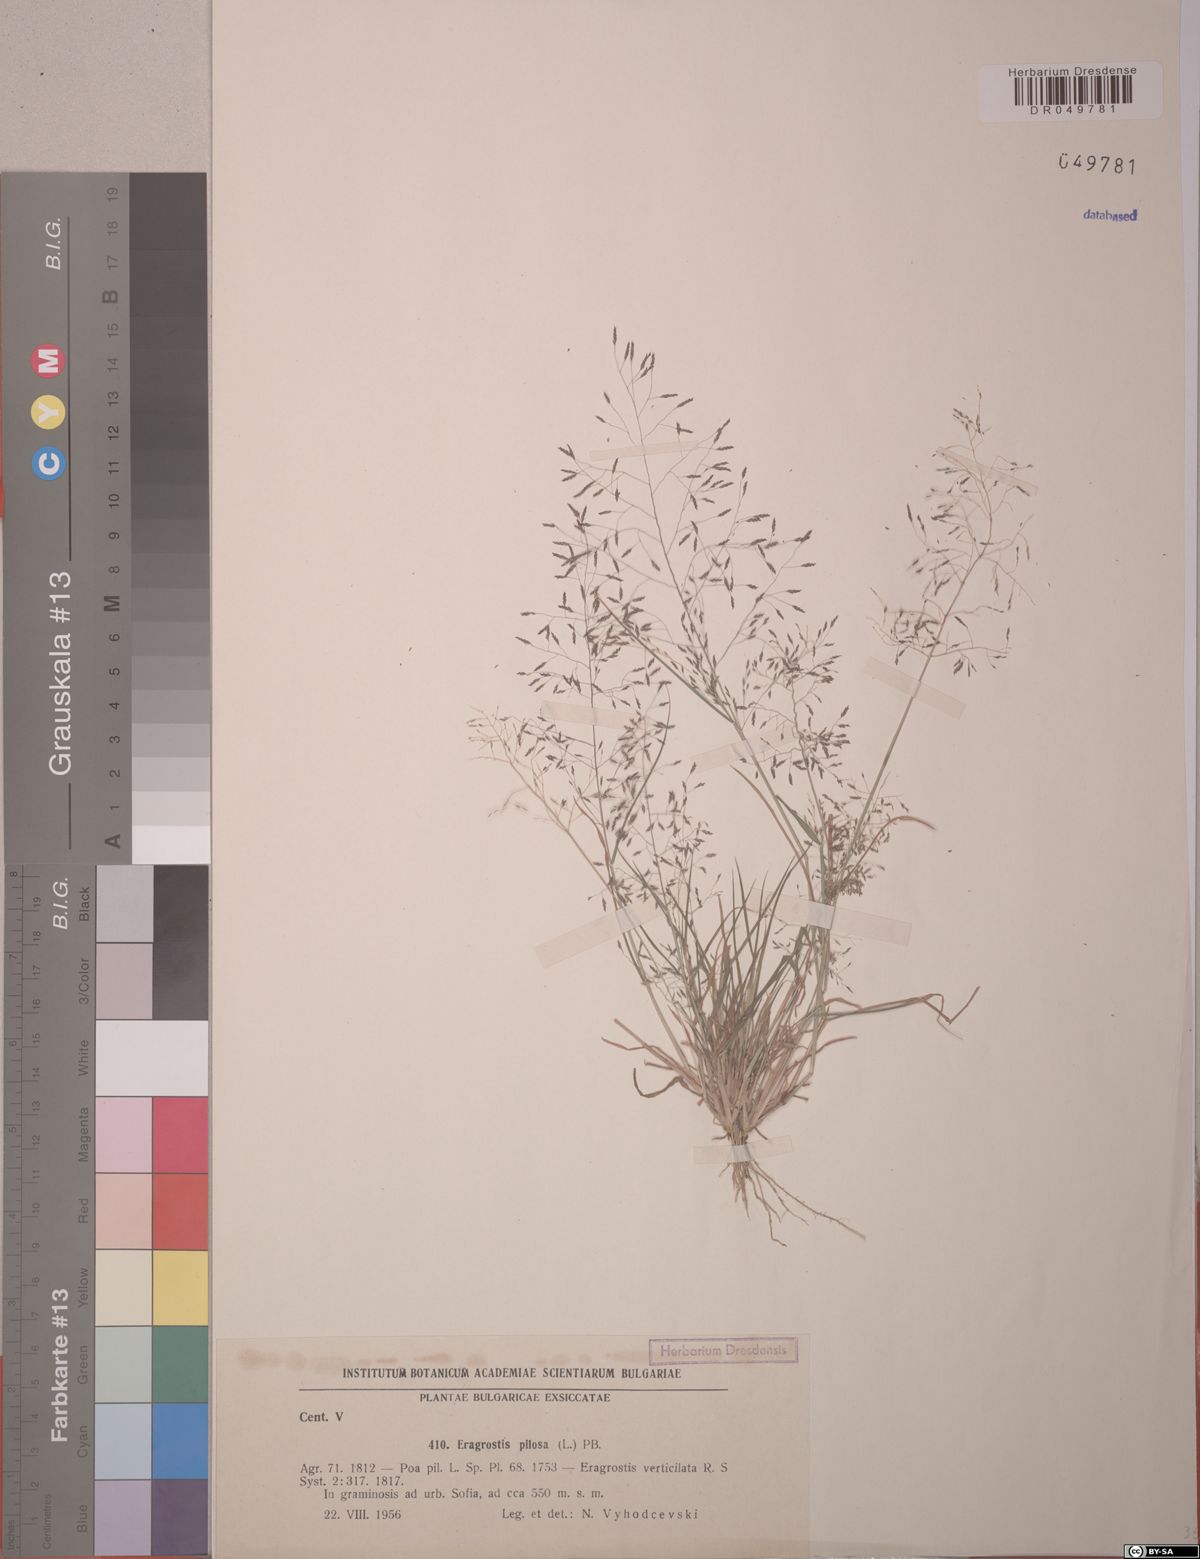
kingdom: Plantae
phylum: Tracheophyta
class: Liliopsida
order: Poales
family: Poaceae
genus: Eragrostis
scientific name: Eragrostis pilosa
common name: Indian lovegrass
